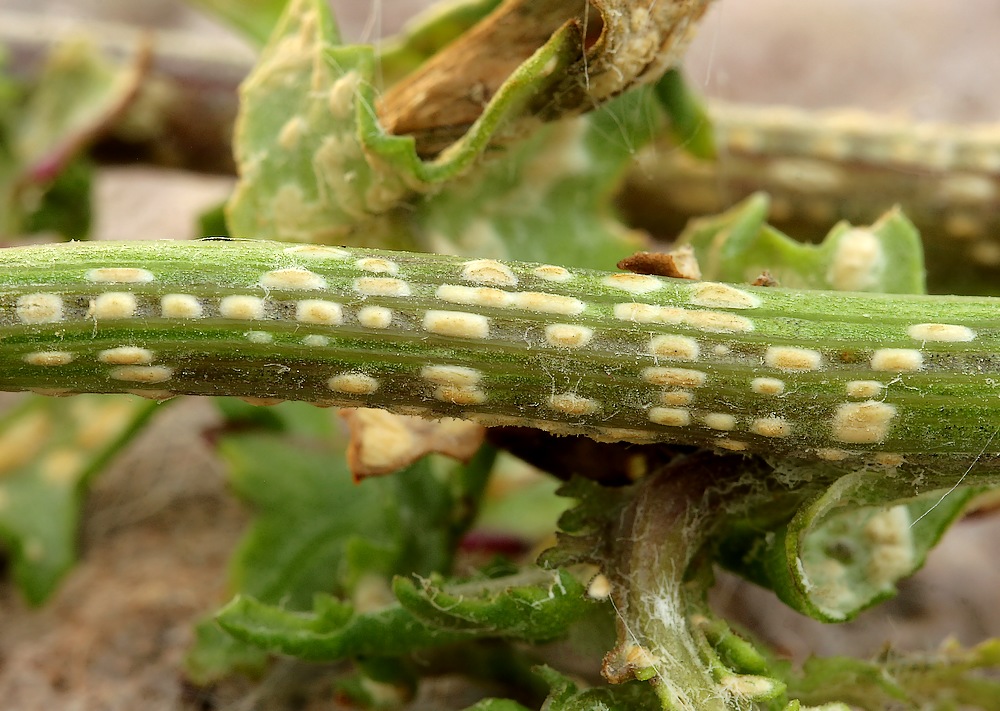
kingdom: Chromista
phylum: Oomycota
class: Peronosporea
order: Albuginales
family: Albuginaceae
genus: Pustula
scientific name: Pustula tragopogonis
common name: Sunflower white rust
